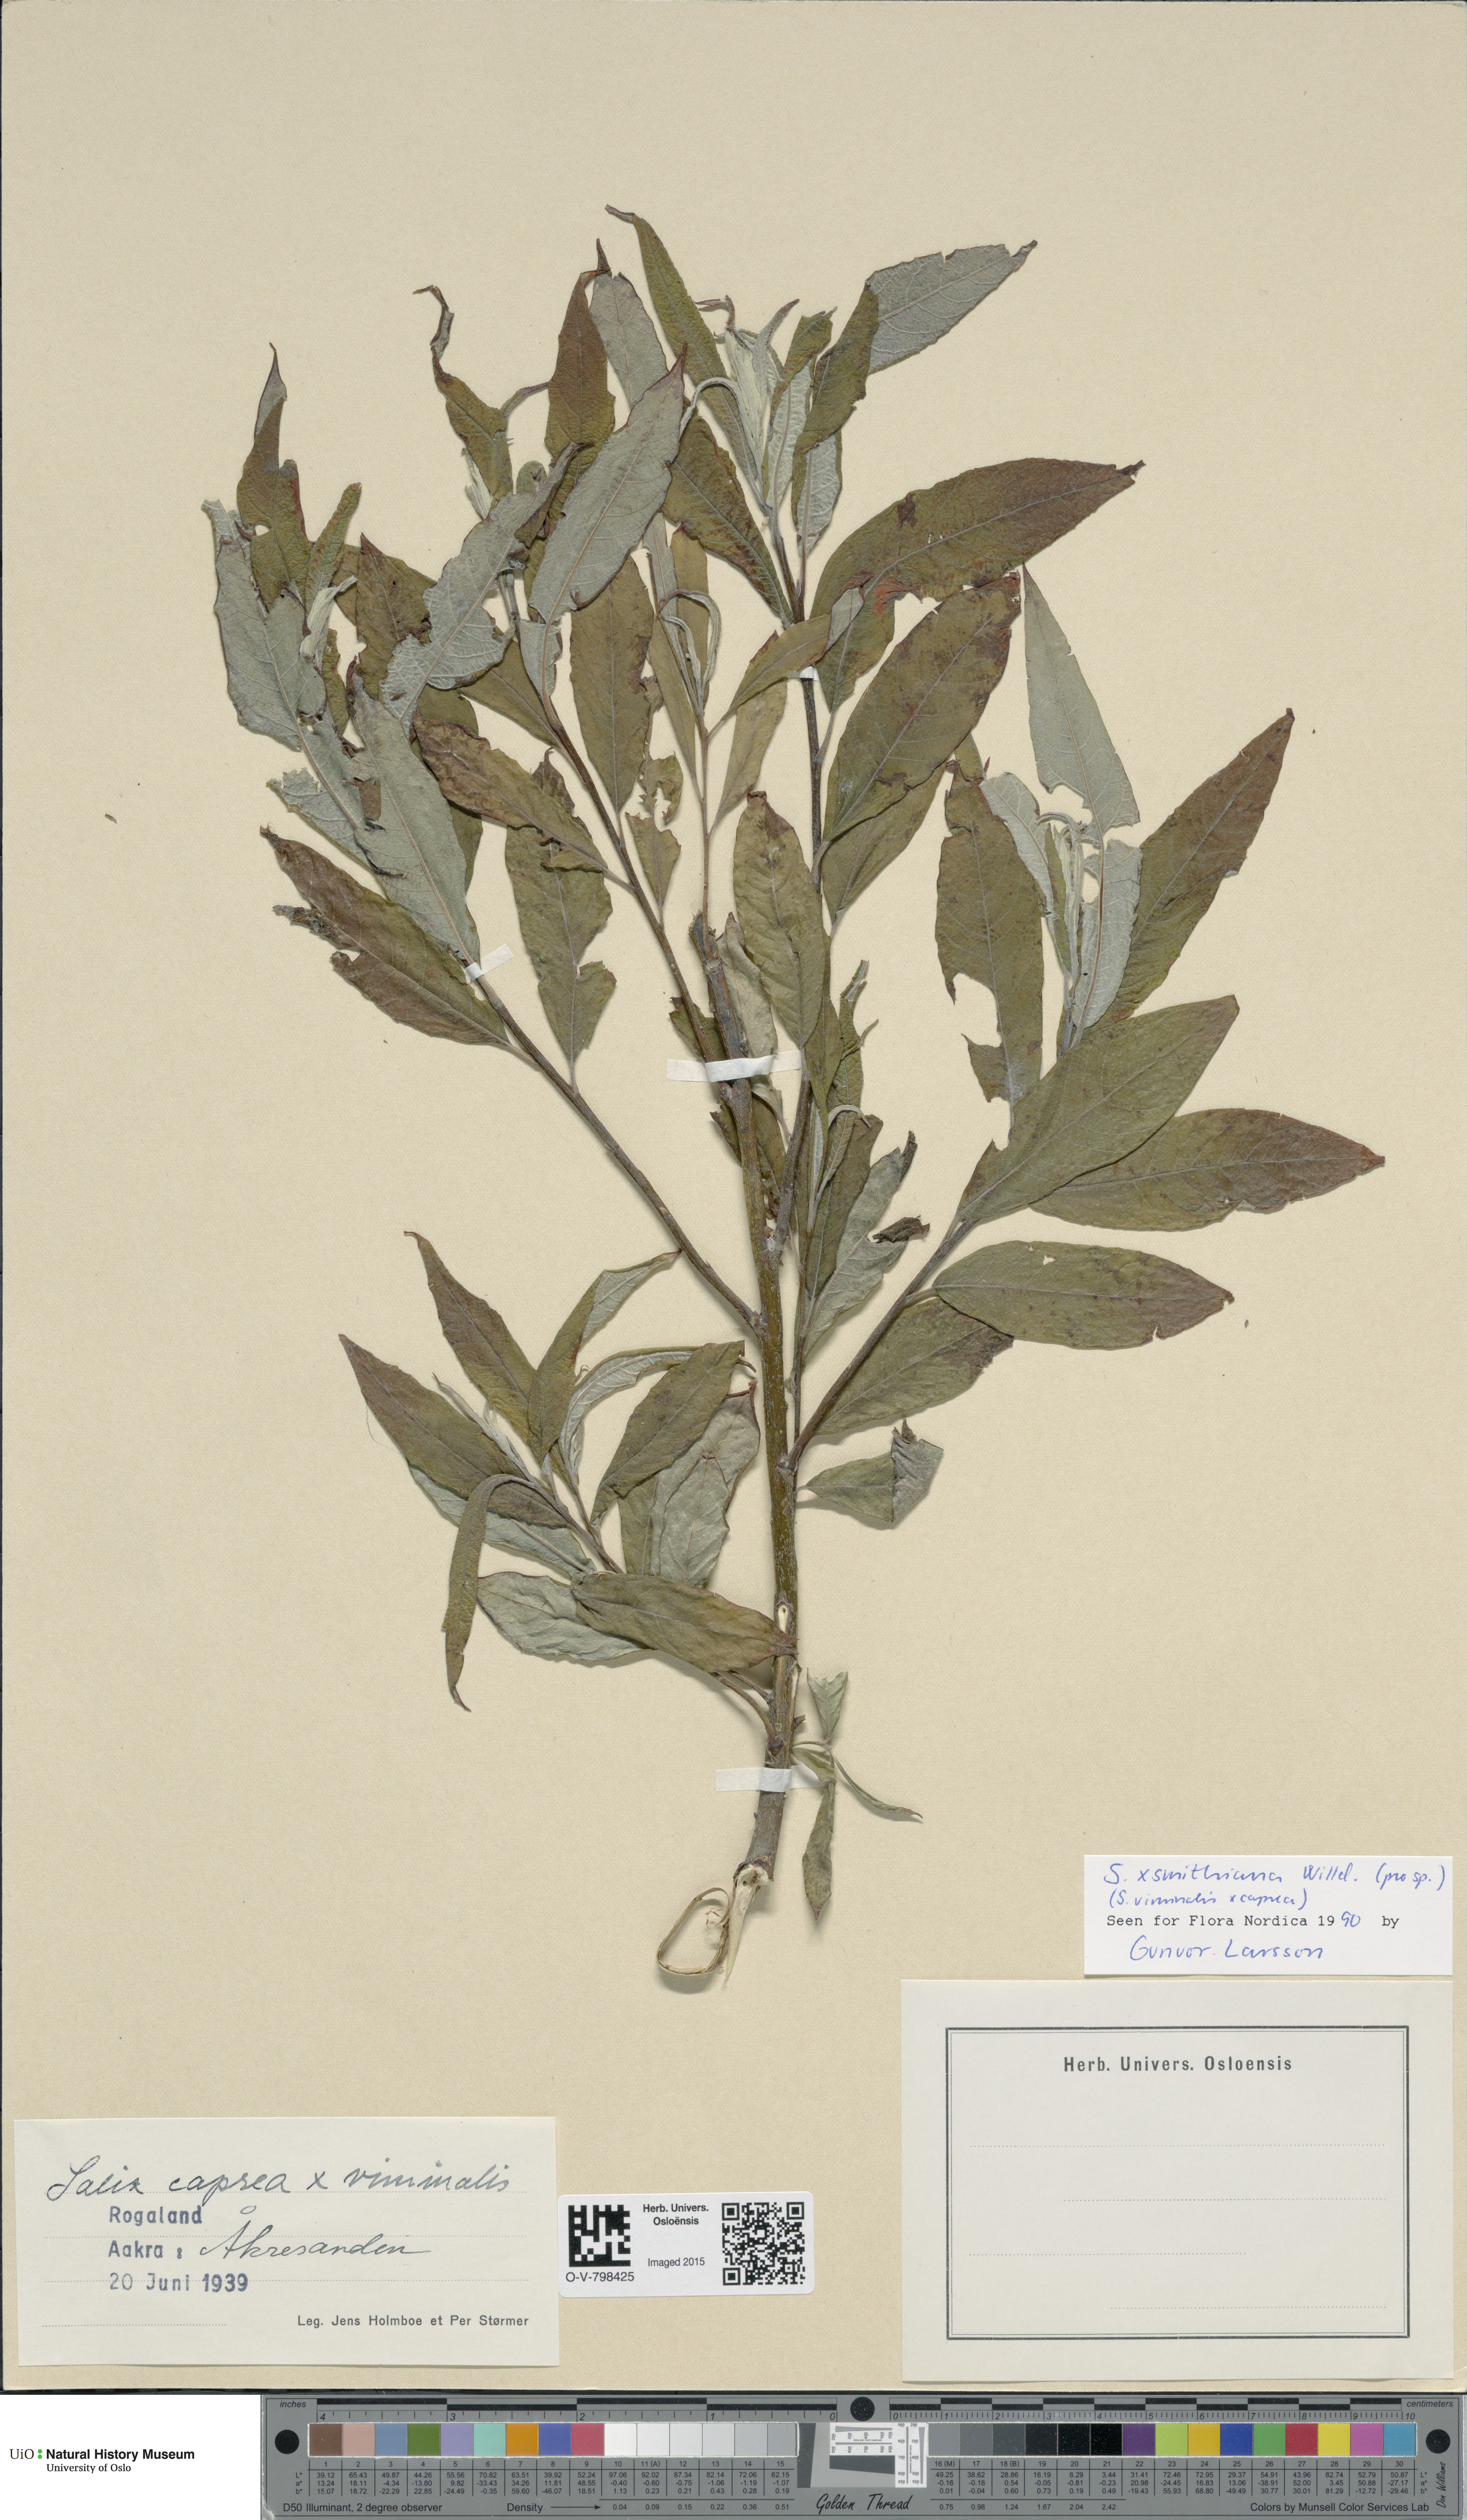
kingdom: Plantae
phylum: Tracheophyta
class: Magnoliopsida
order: Malpighiales
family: Salicaceae
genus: Salix
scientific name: Salix smithiana
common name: Silky-leaved osier
